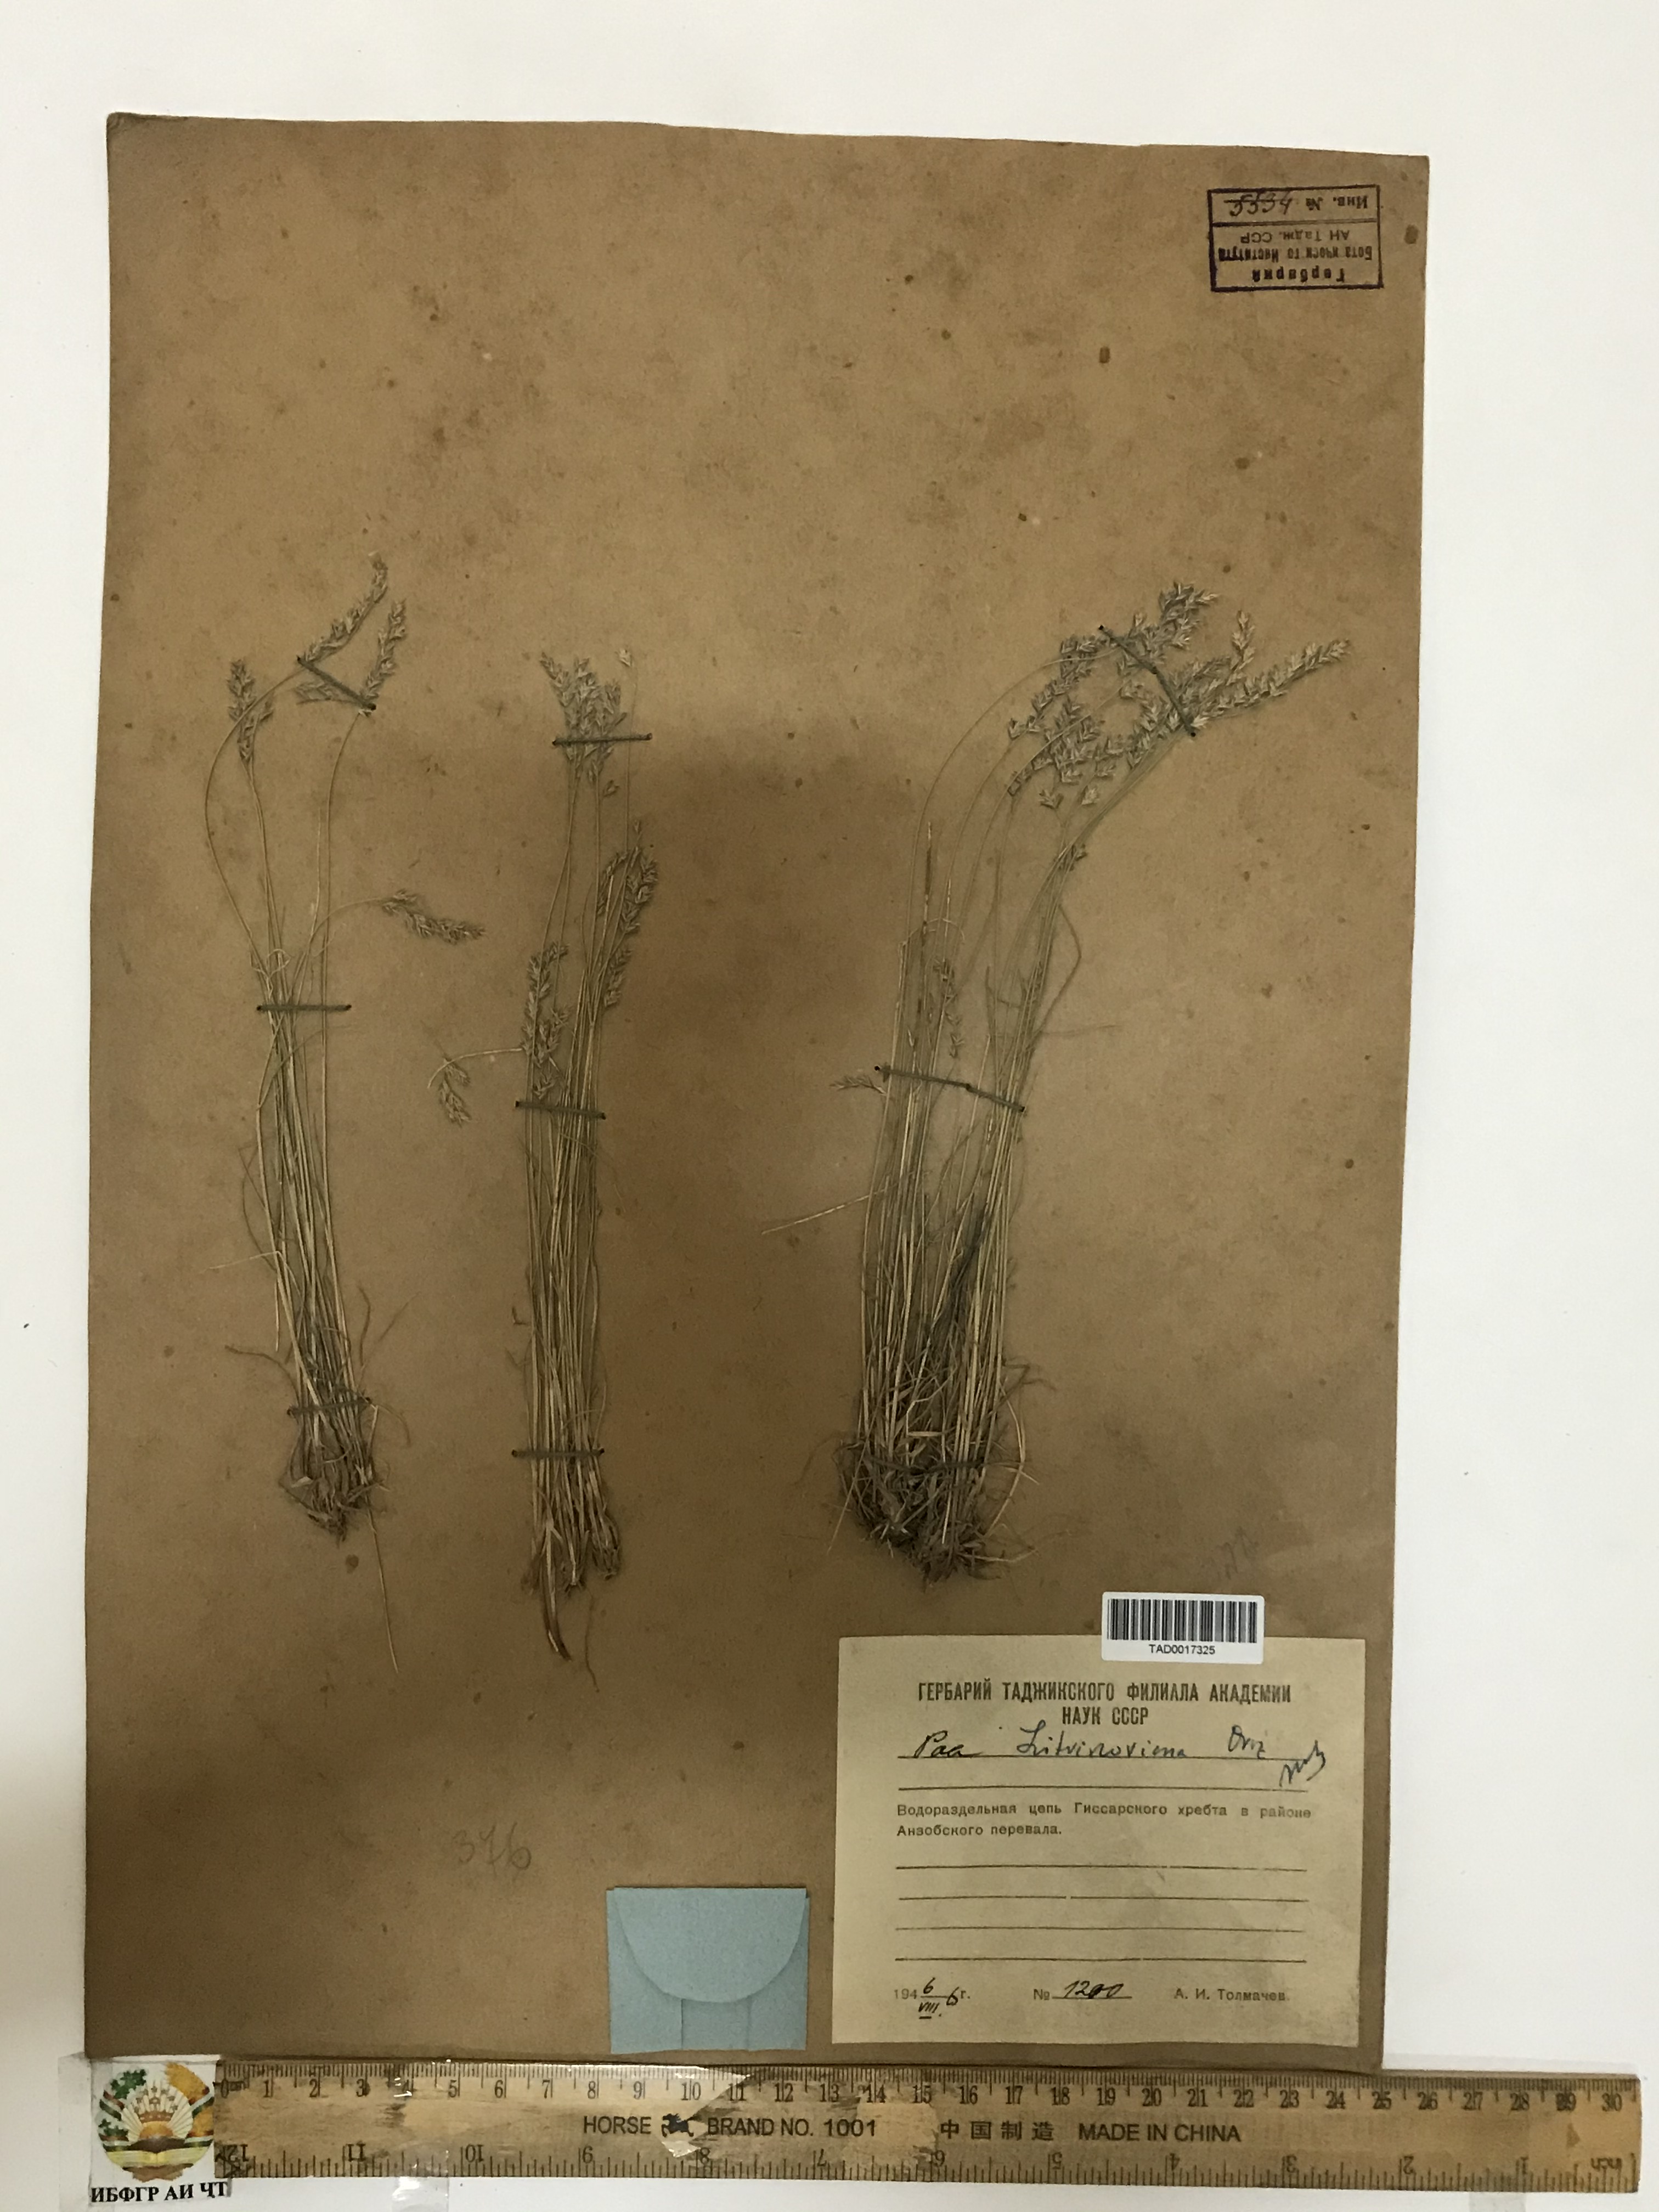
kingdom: Plantae
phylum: Tracheophyta
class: Liliopsida
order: Poales
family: Poaceae
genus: Poa
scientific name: Poa glauca
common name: Glaucous bluegrass
